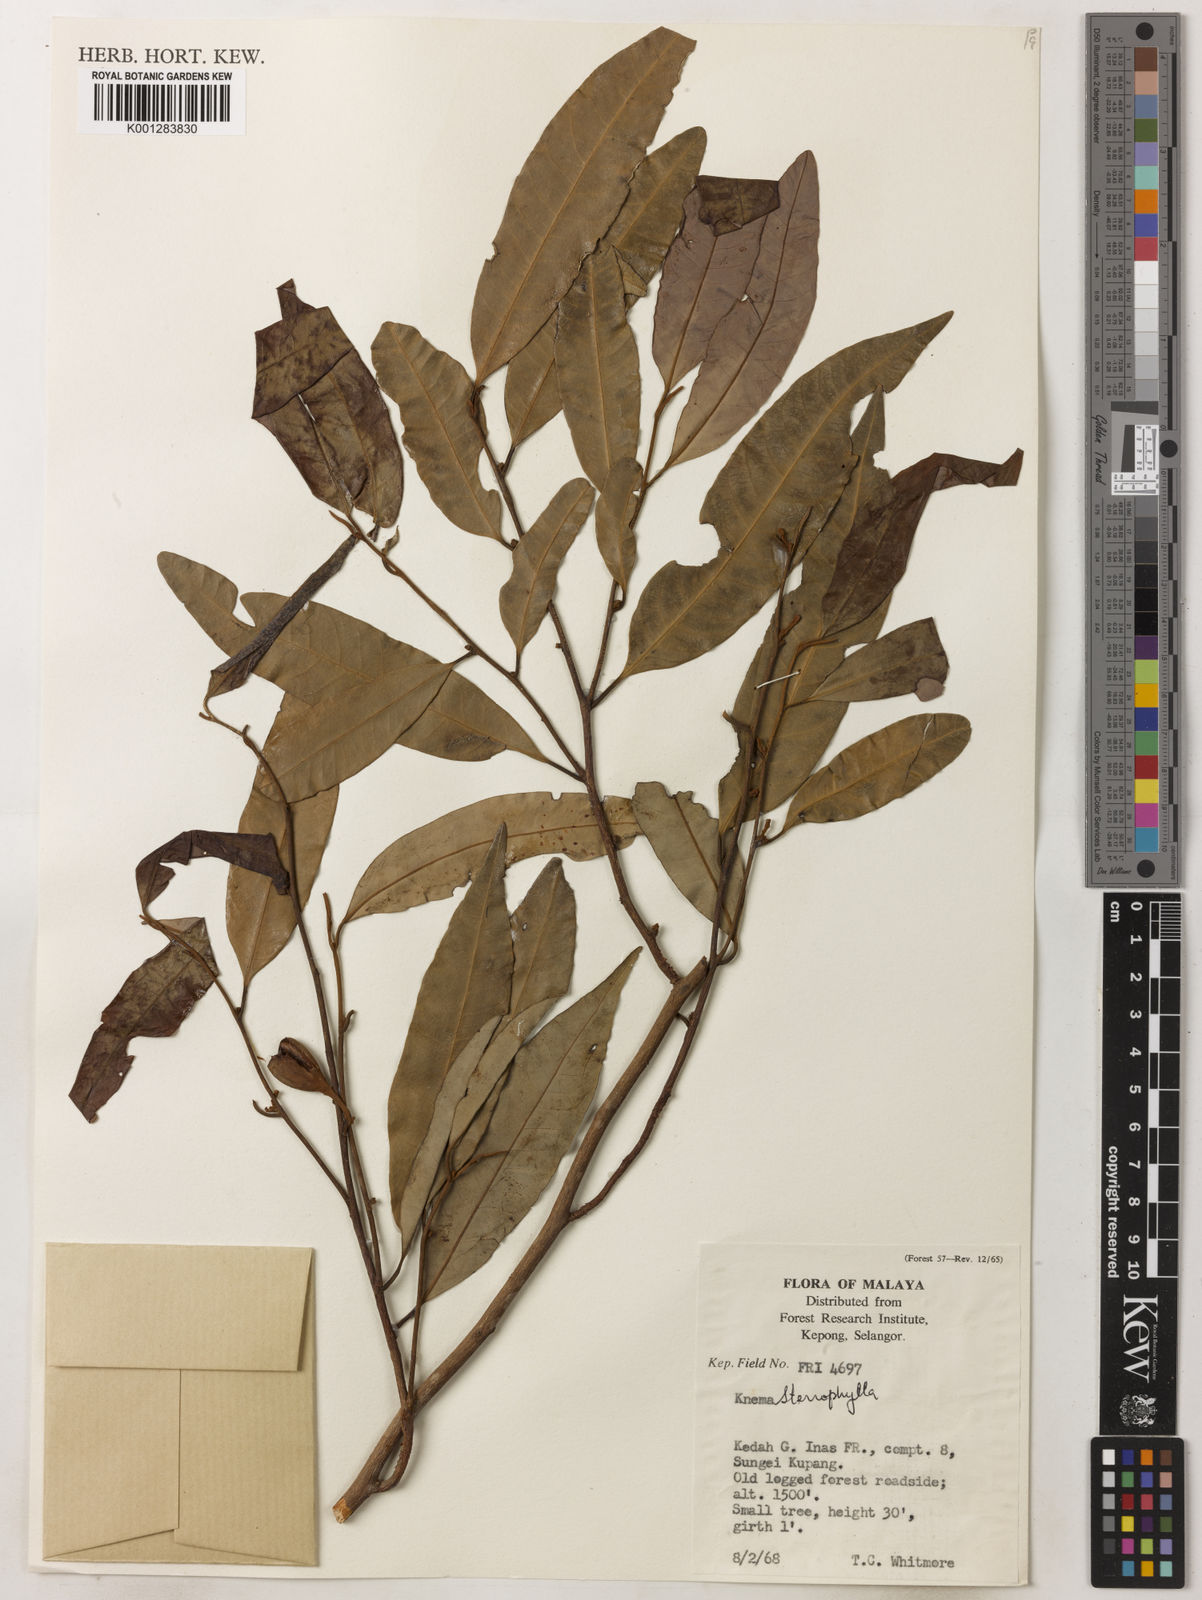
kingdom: Plantae
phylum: Tracheophyta
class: Magnoliopsida
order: Magnoliales
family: Myristicaceae
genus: Knema
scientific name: Knema stenophylla
